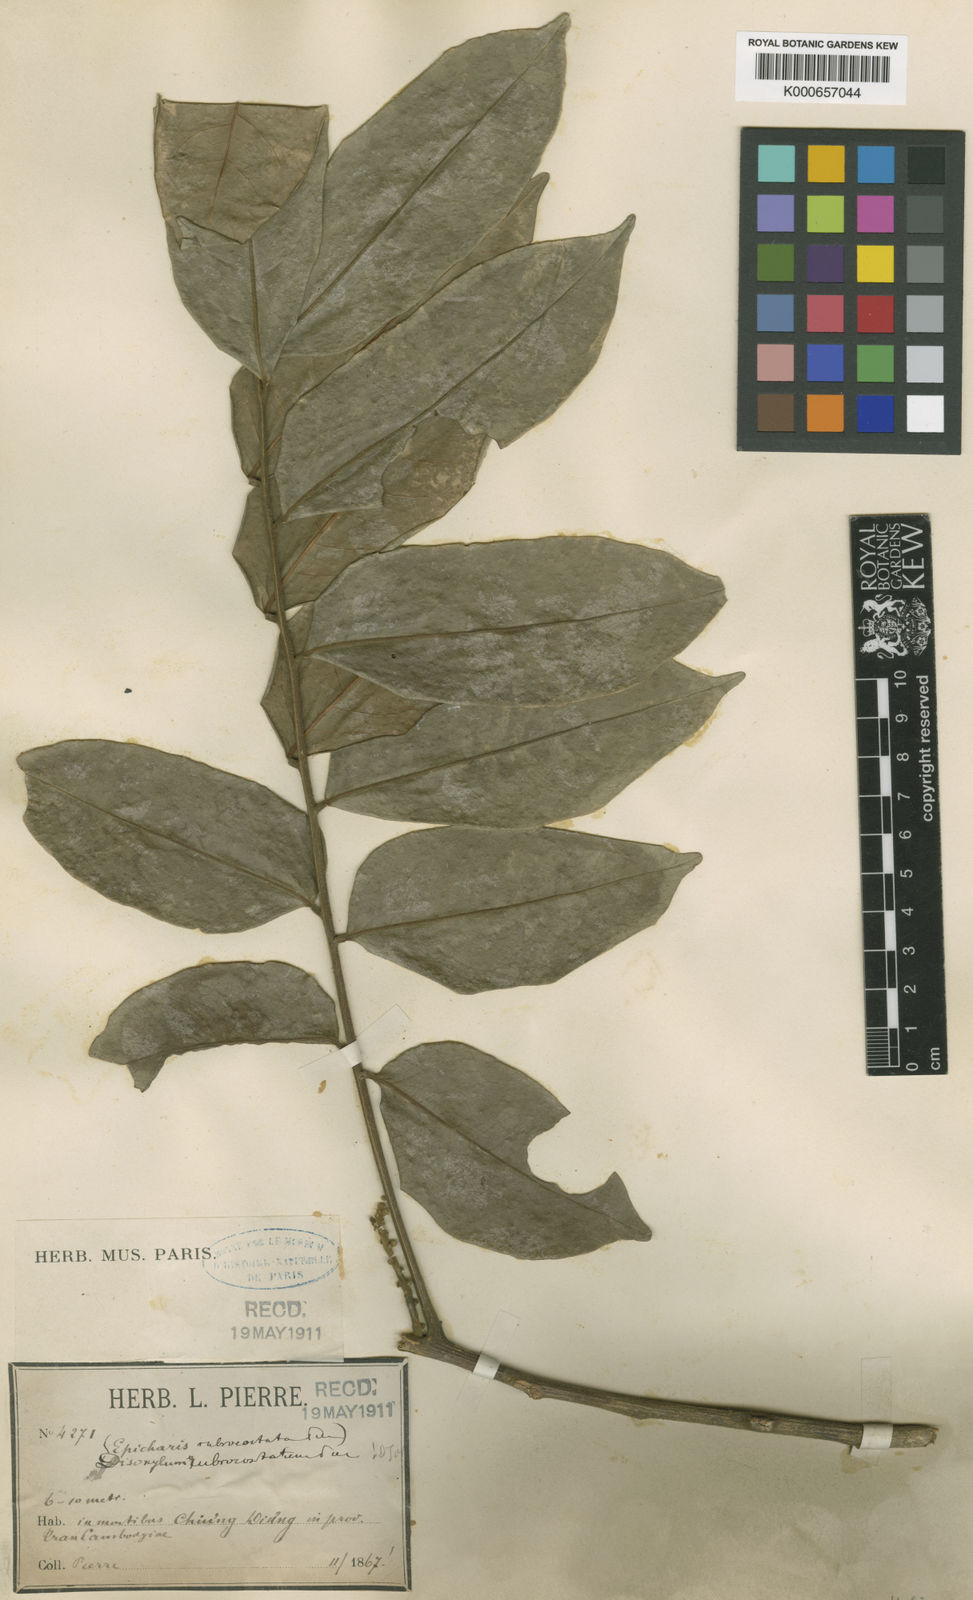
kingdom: Plantae
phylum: Tracheophyta
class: Magnoliopsida
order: Sapindales
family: Meliaceae
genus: Dysoxylum
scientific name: Dysoxylum rubrocostatum
